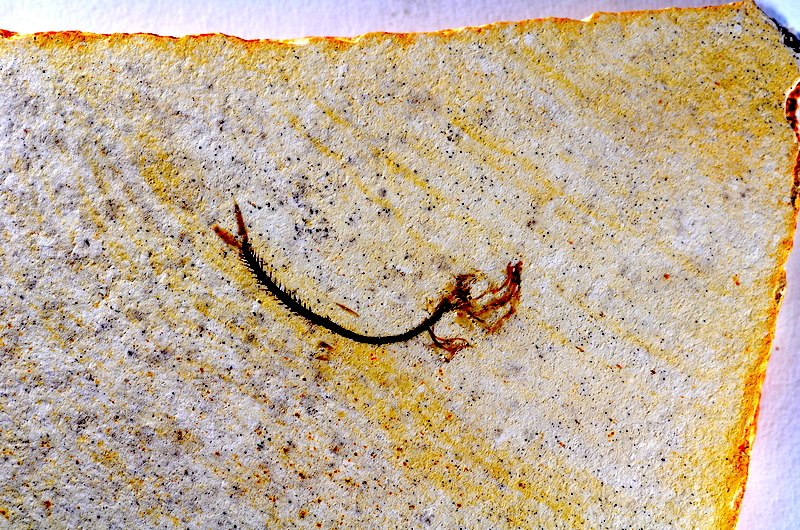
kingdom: Animalia
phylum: Chordata
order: Salmoniformes
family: Orthogonikleithridae
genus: Orthogonikleithrus
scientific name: Orthogonikleithrus hoelli
